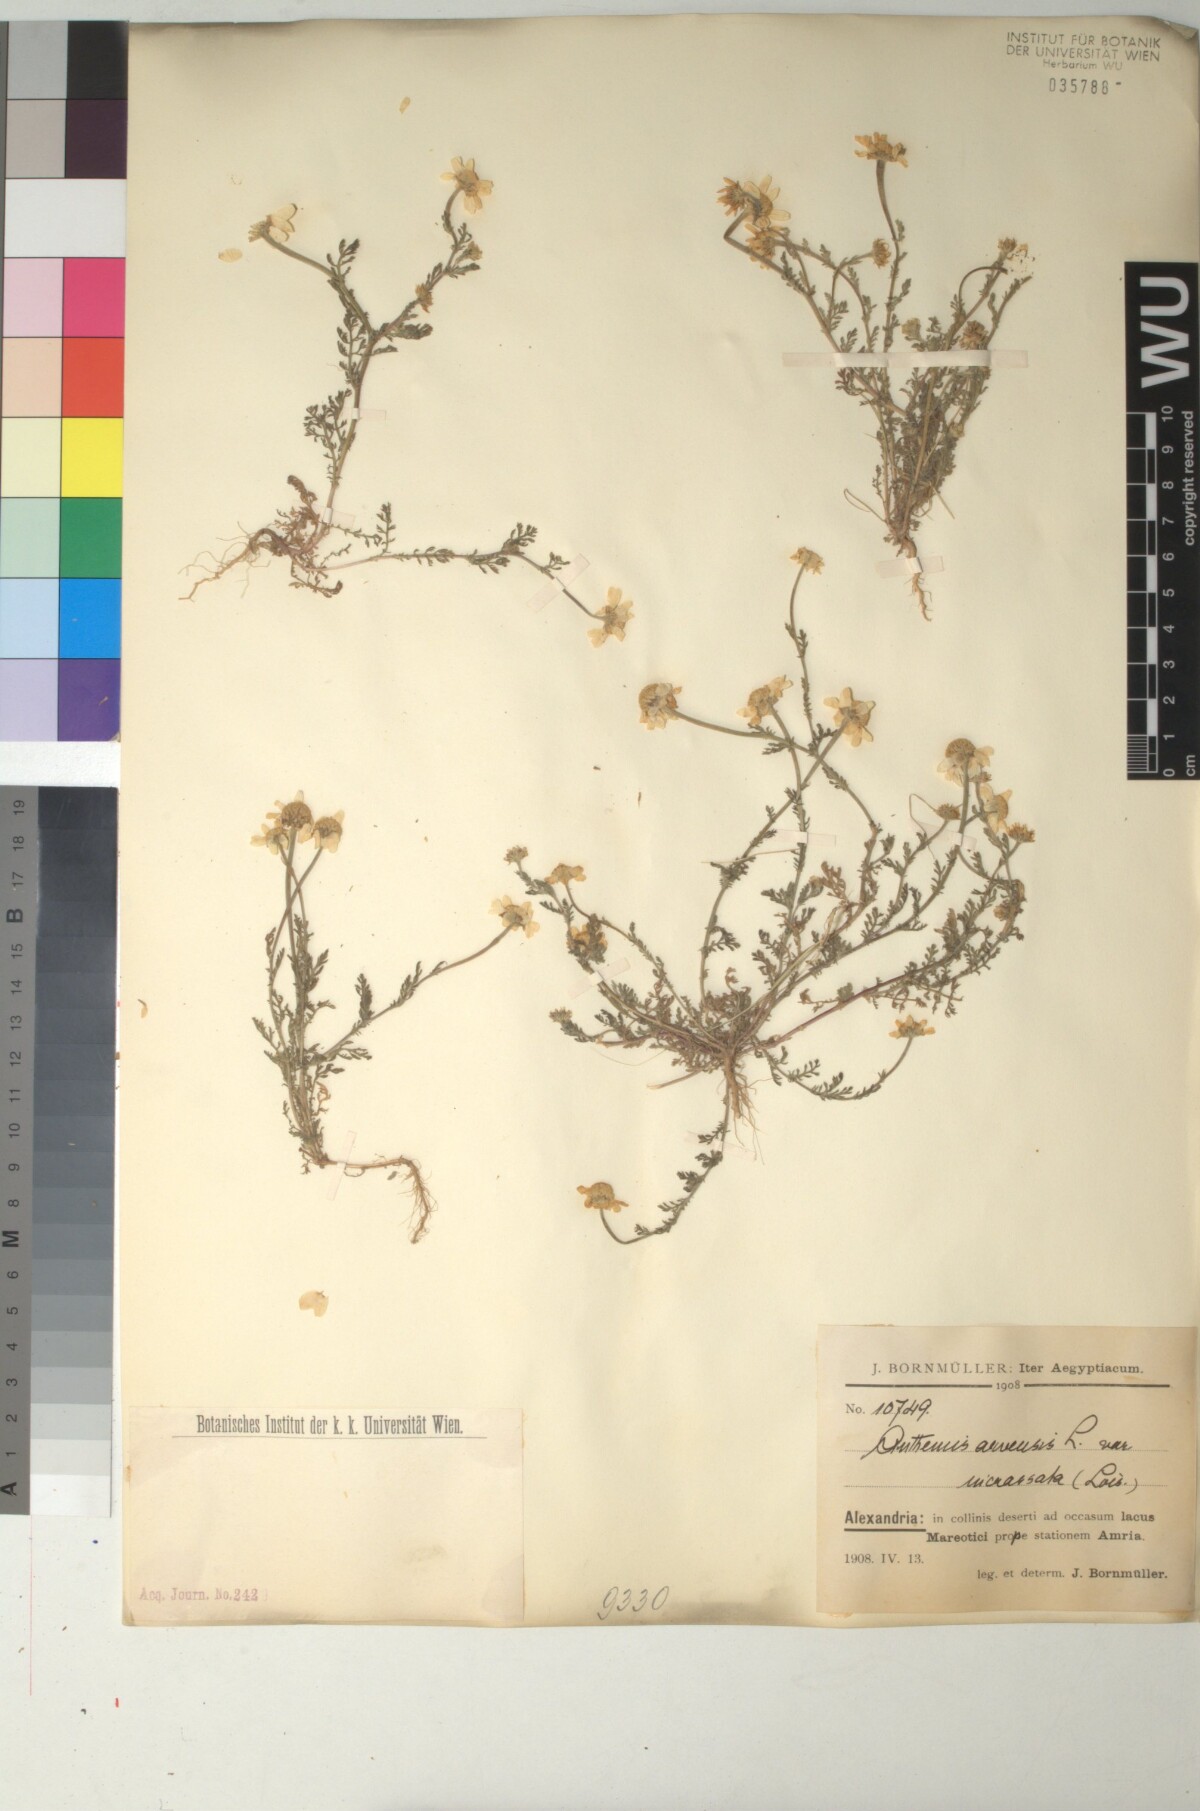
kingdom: Plantae
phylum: Tracheophyta
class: Magnoliopsida
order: Asterales
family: Asteraceae
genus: Anthemis
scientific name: Anthemis arvensis
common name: Corn chamomile
